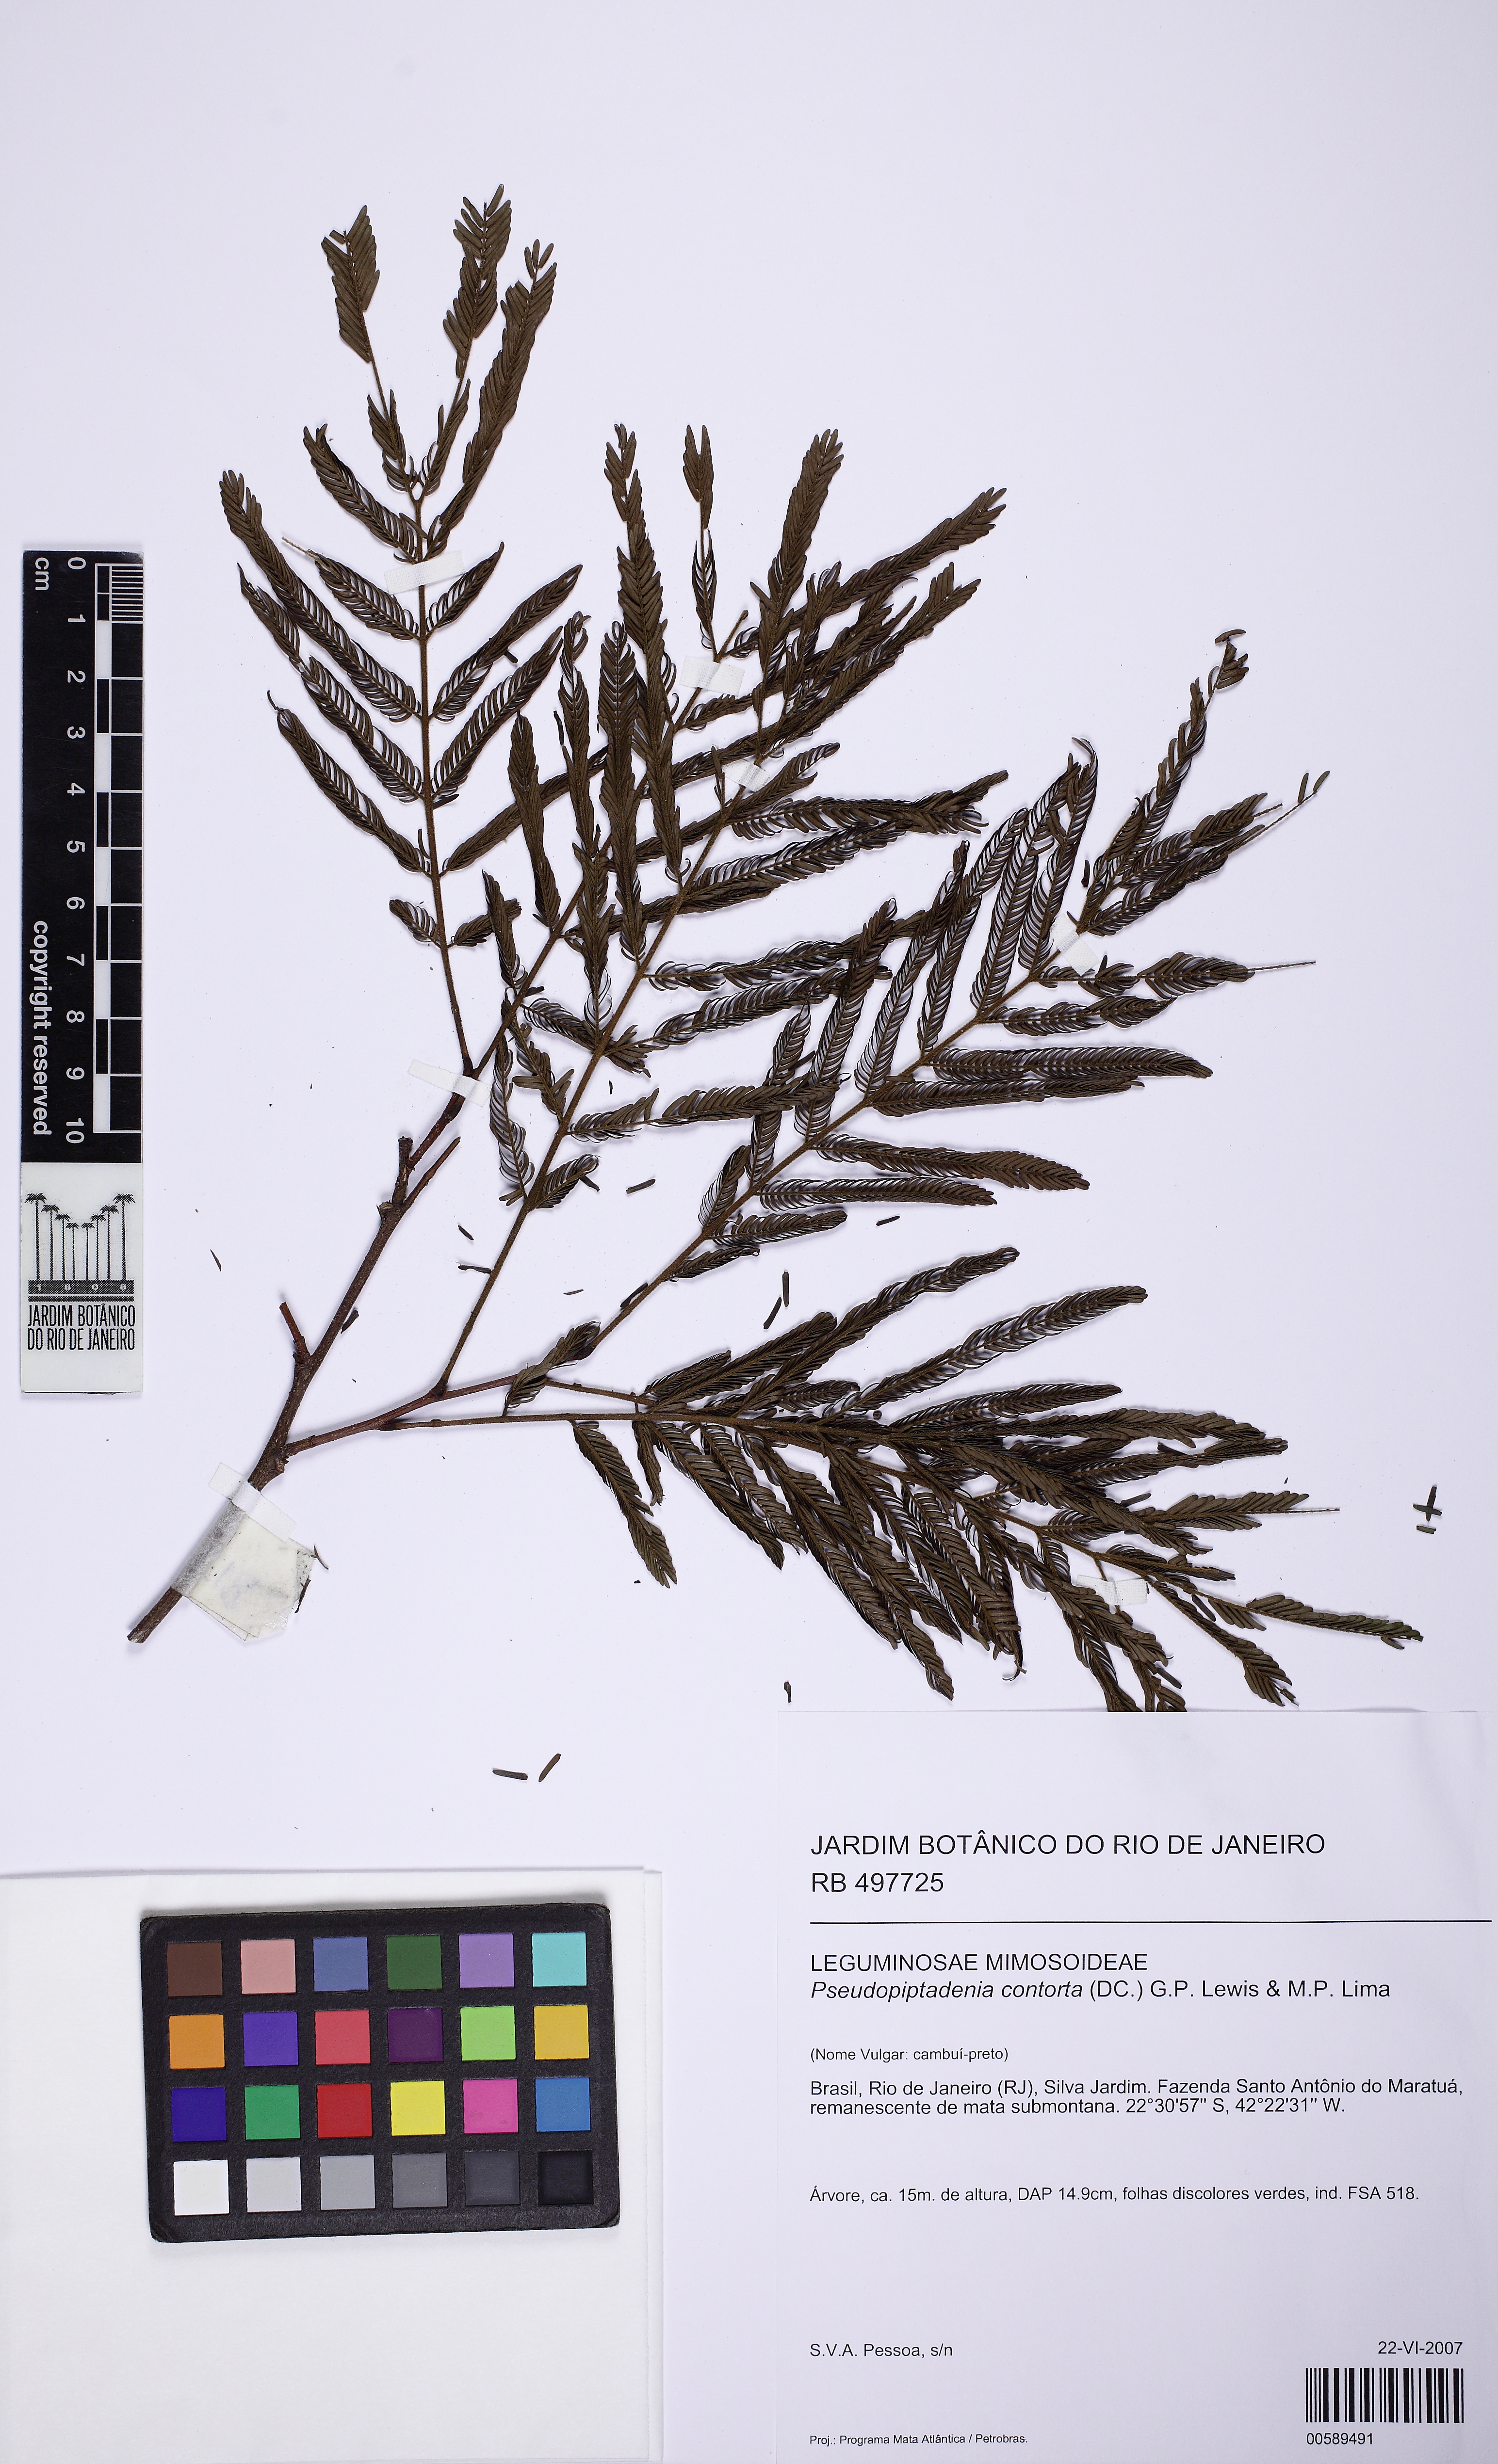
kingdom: Plantae
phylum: Tracheophyta
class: Magnoliopsida
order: Fabales
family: Fabaceae
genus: Pseudopiptadenia
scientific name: Pseudopiptadenia contorta
